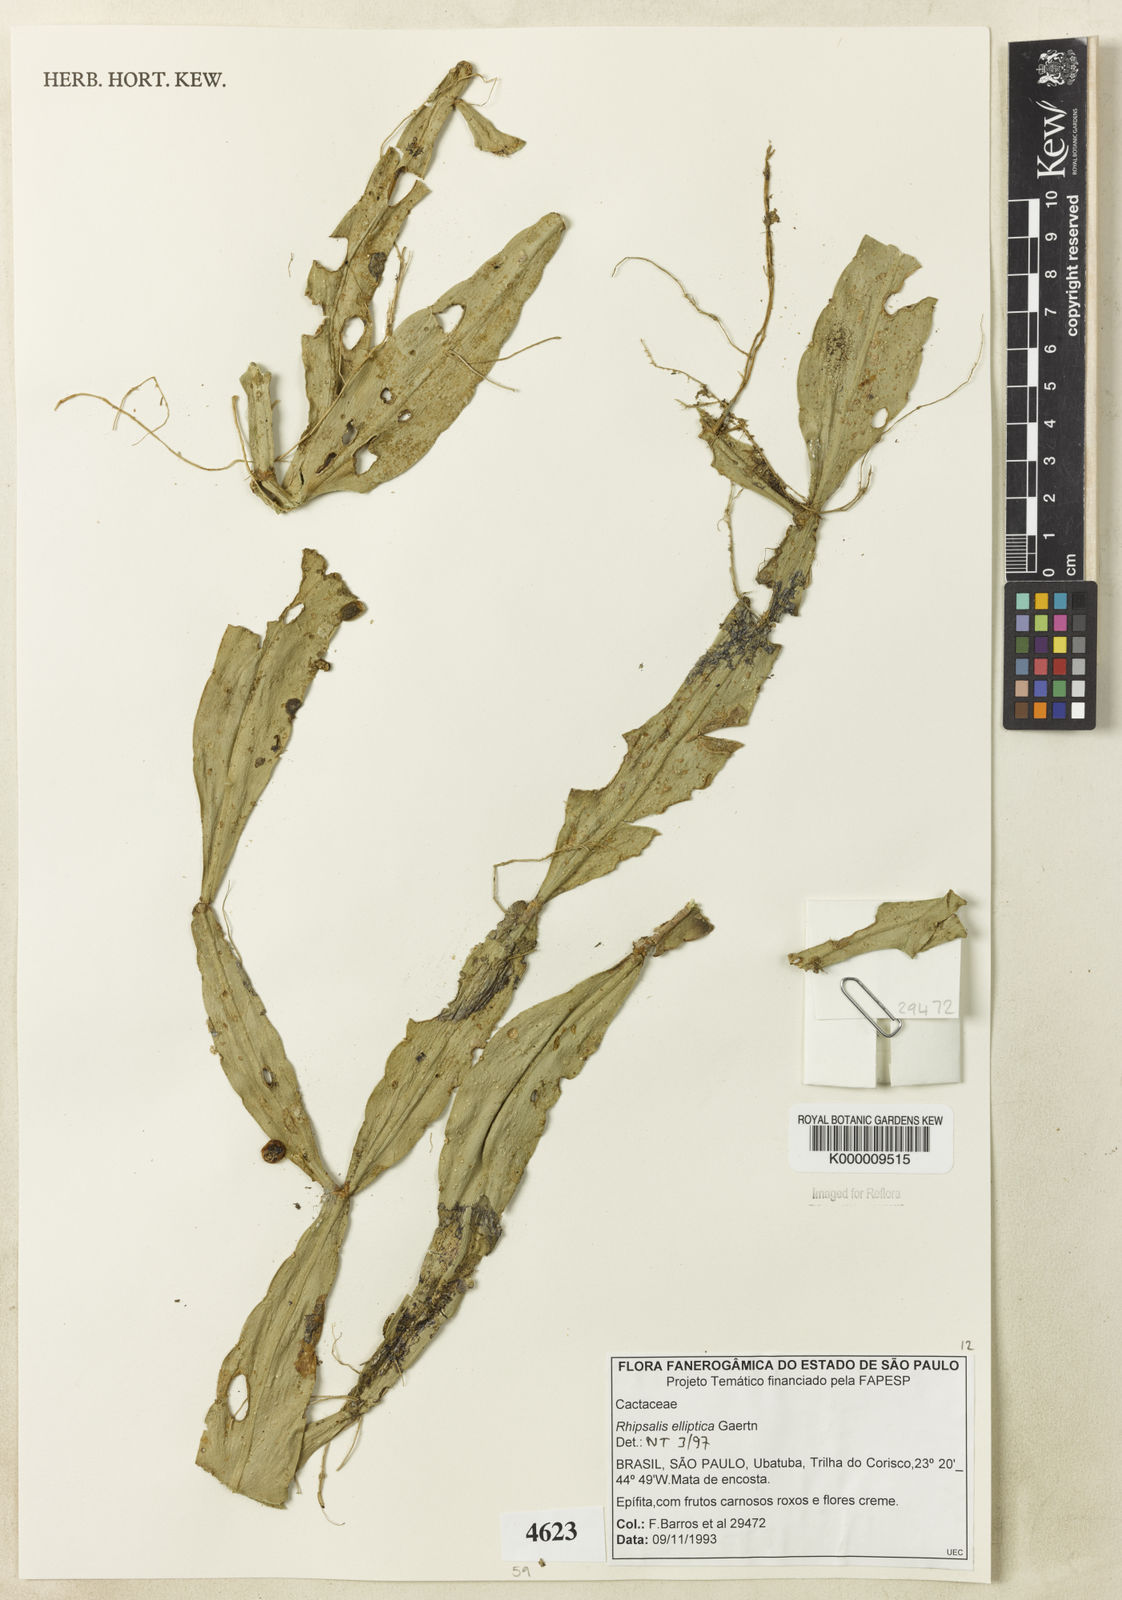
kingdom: Plantae
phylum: Tracheophyta
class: Magnoliopsida
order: Caryophyllales
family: Cactaceae
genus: Rhipsalis
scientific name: Rhipsalis elliptica
